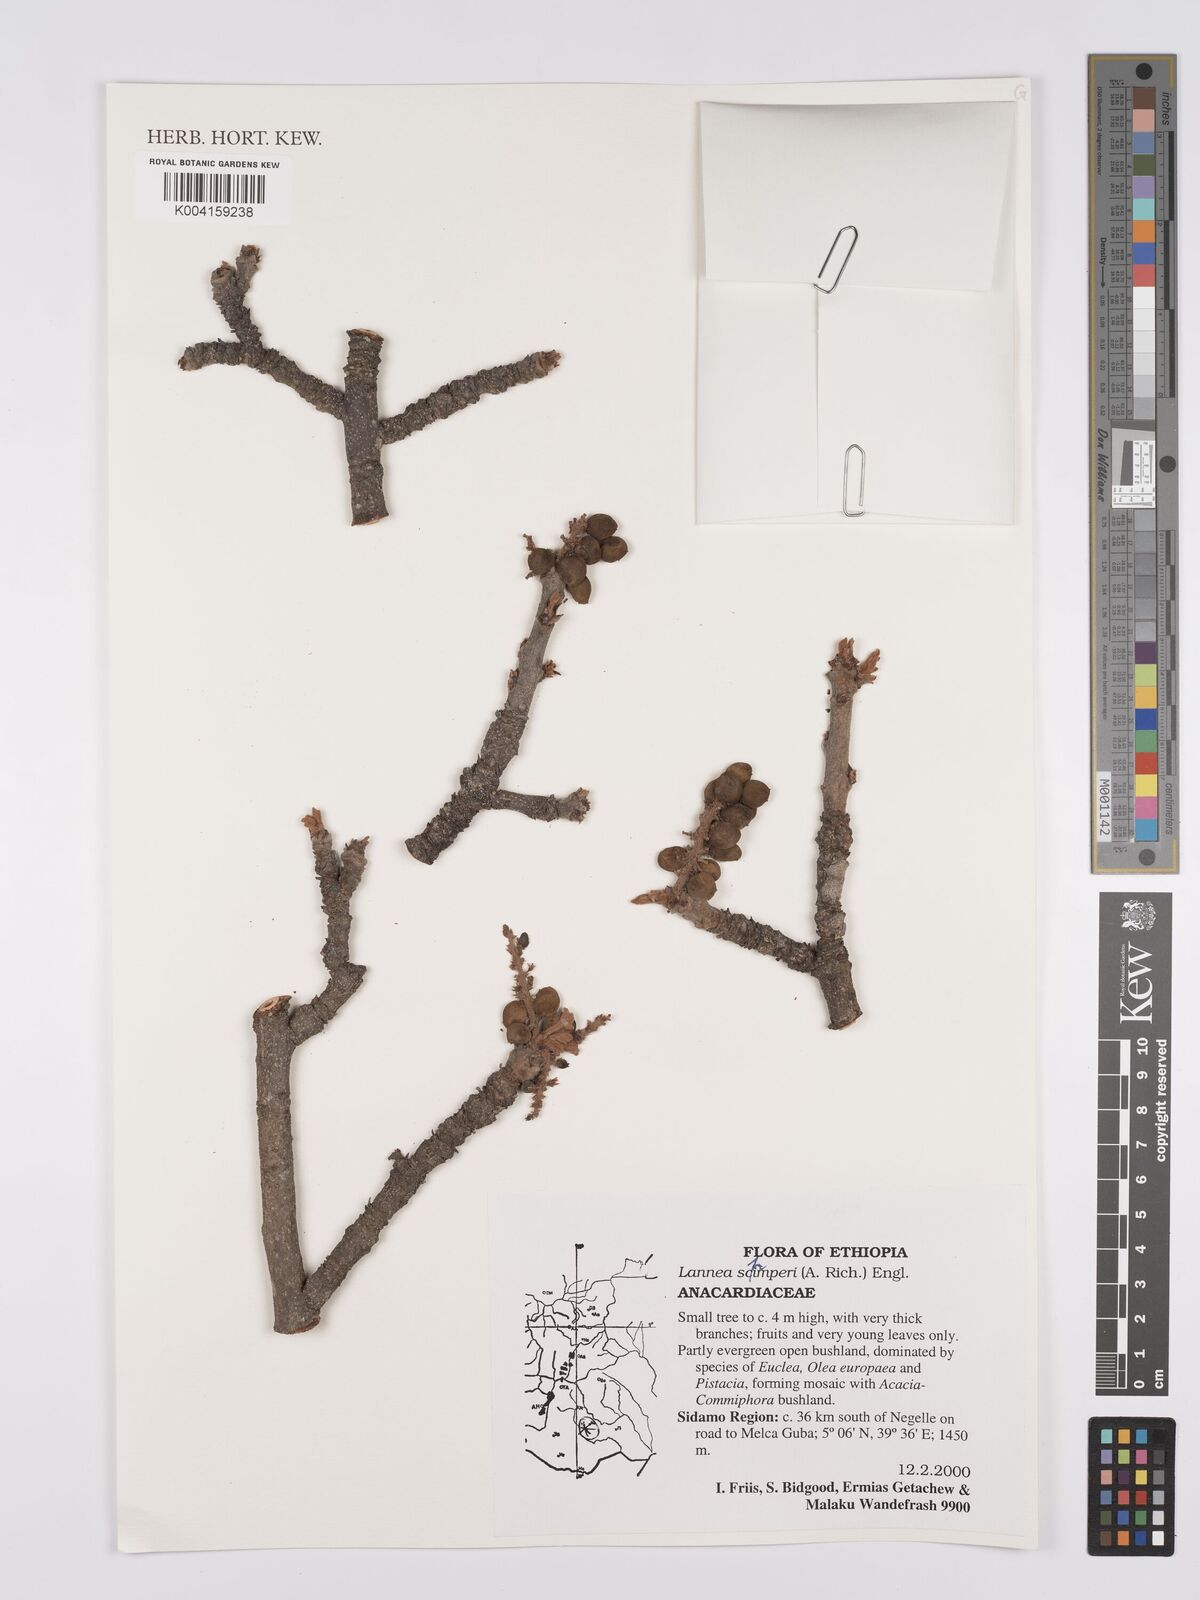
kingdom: Plantae
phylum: Tracheophyta
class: Magnoliopsida
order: Sapindales
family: Anacardiaceae
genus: Lannea
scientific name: Lannea schimperi
